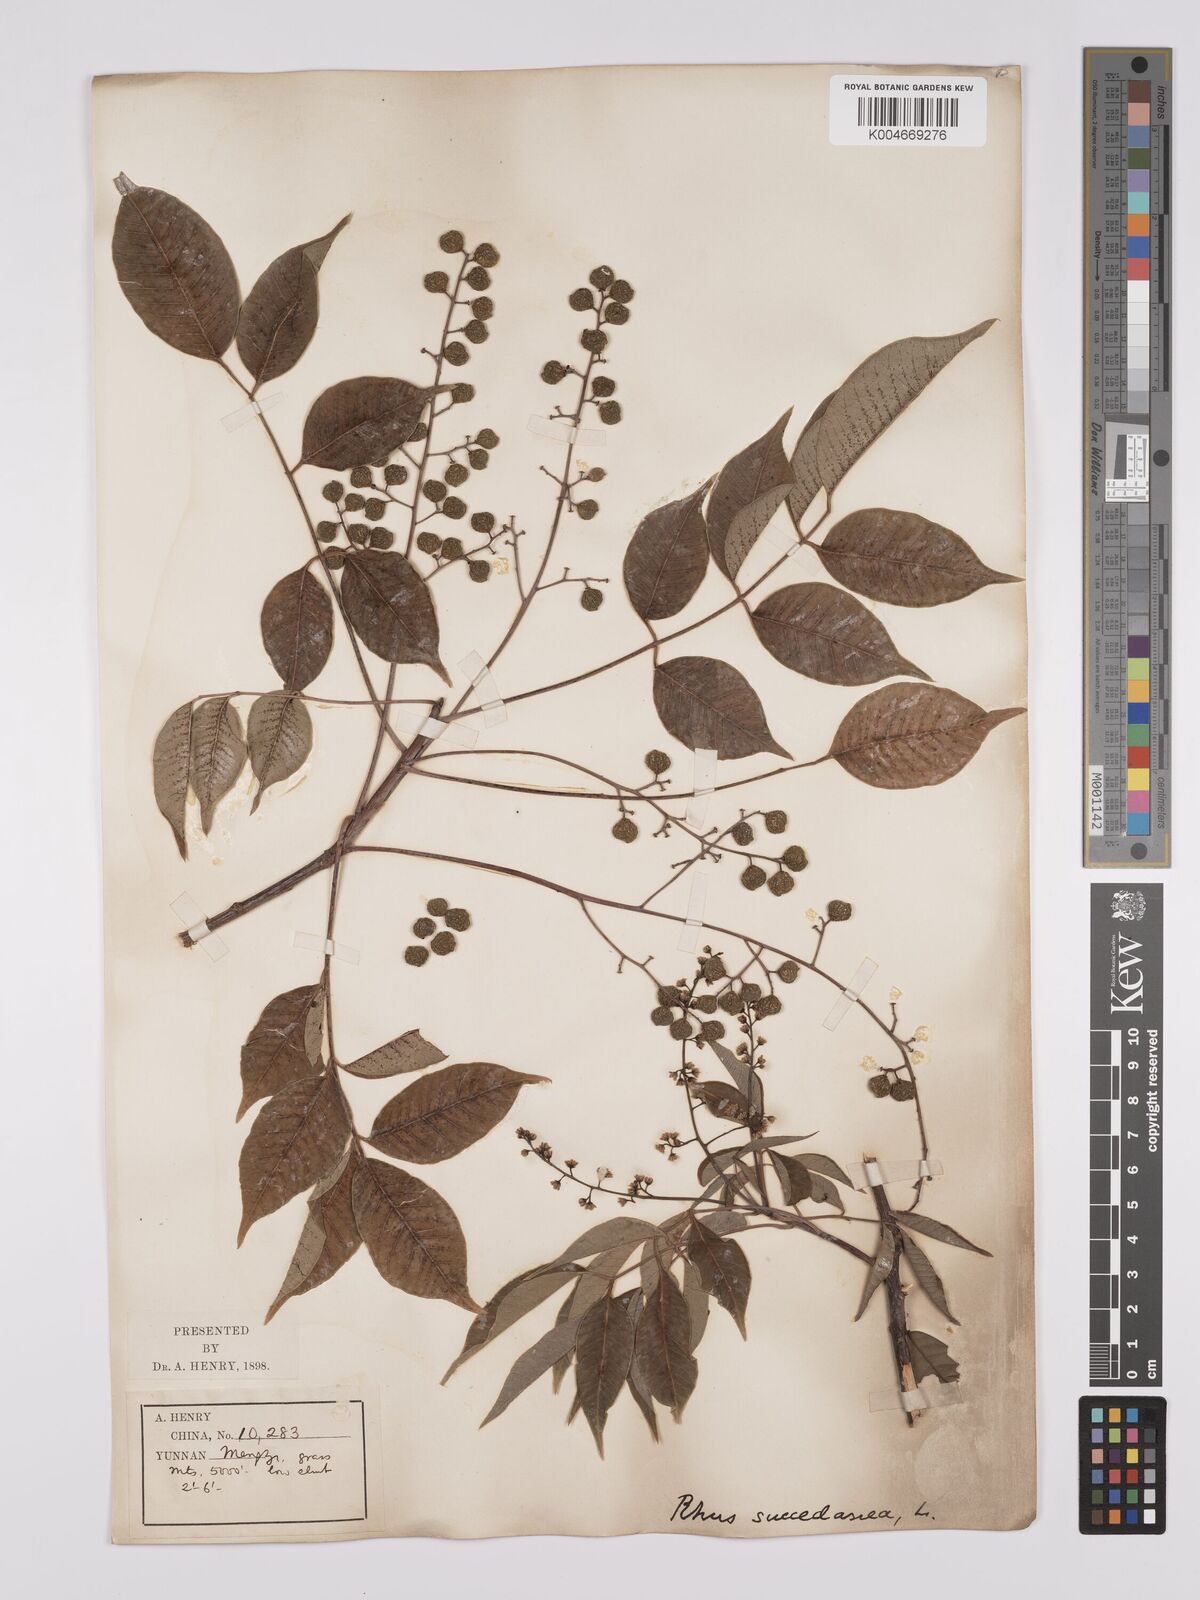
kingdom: Plantae
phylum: Tracheophyta
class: Magnoliopsida
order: Sapindales
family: Anacardiaceae
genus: Toxicodendron
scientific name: Toxicodendron succedaneum
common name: Wax tree
